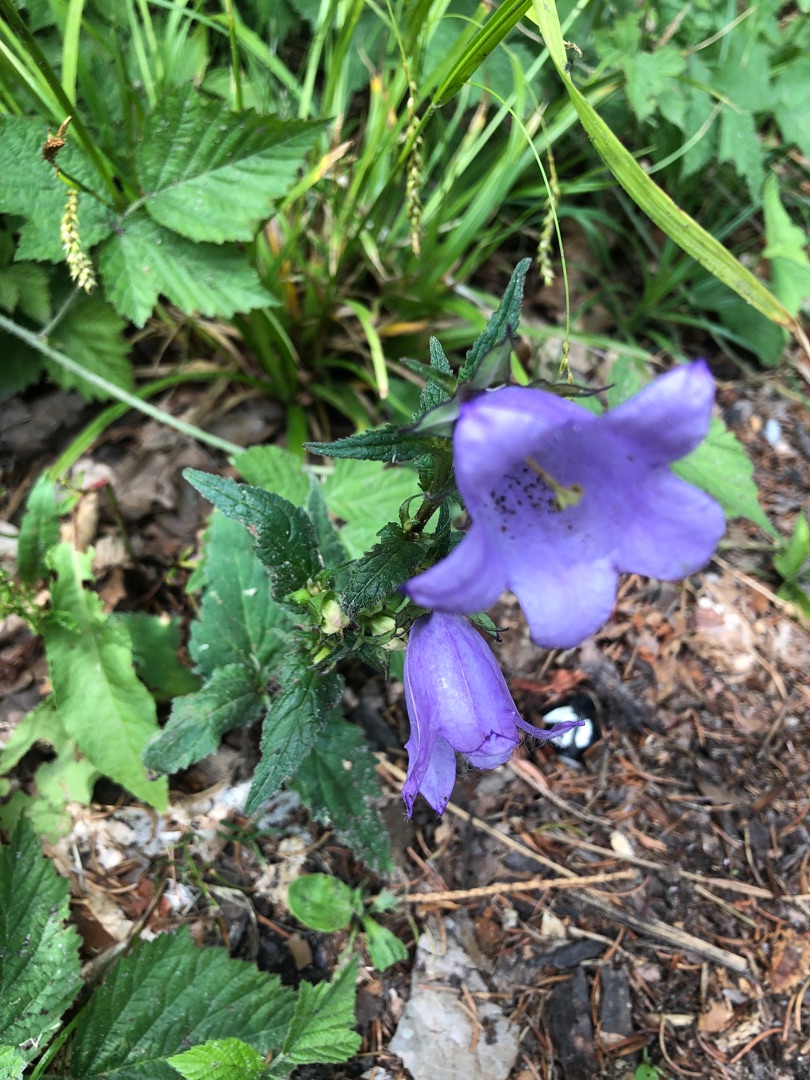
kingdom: Plantae
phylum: Tracheophyta
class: Magnoliopsida
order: Asterales
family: Campanulaceae
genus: Campanula
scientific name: Campanula trachelium
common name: Nælde-klokke
